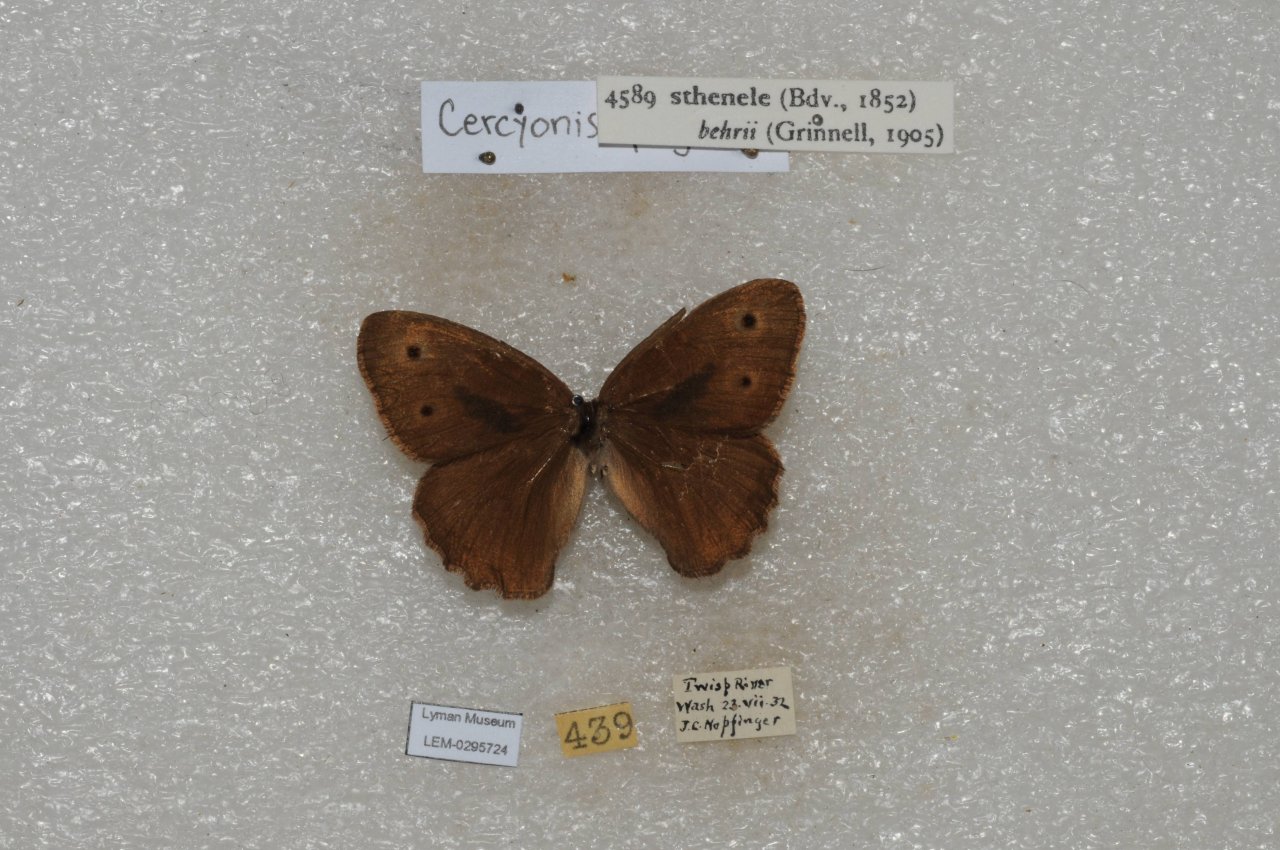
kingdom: Animalia
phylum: Arthropoda
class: Insecta
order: Lepidoptera
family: Nymphalidae
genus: Cercyonis
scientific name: Cercyonis sthenele
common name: Great Basin Wood-Nymph
